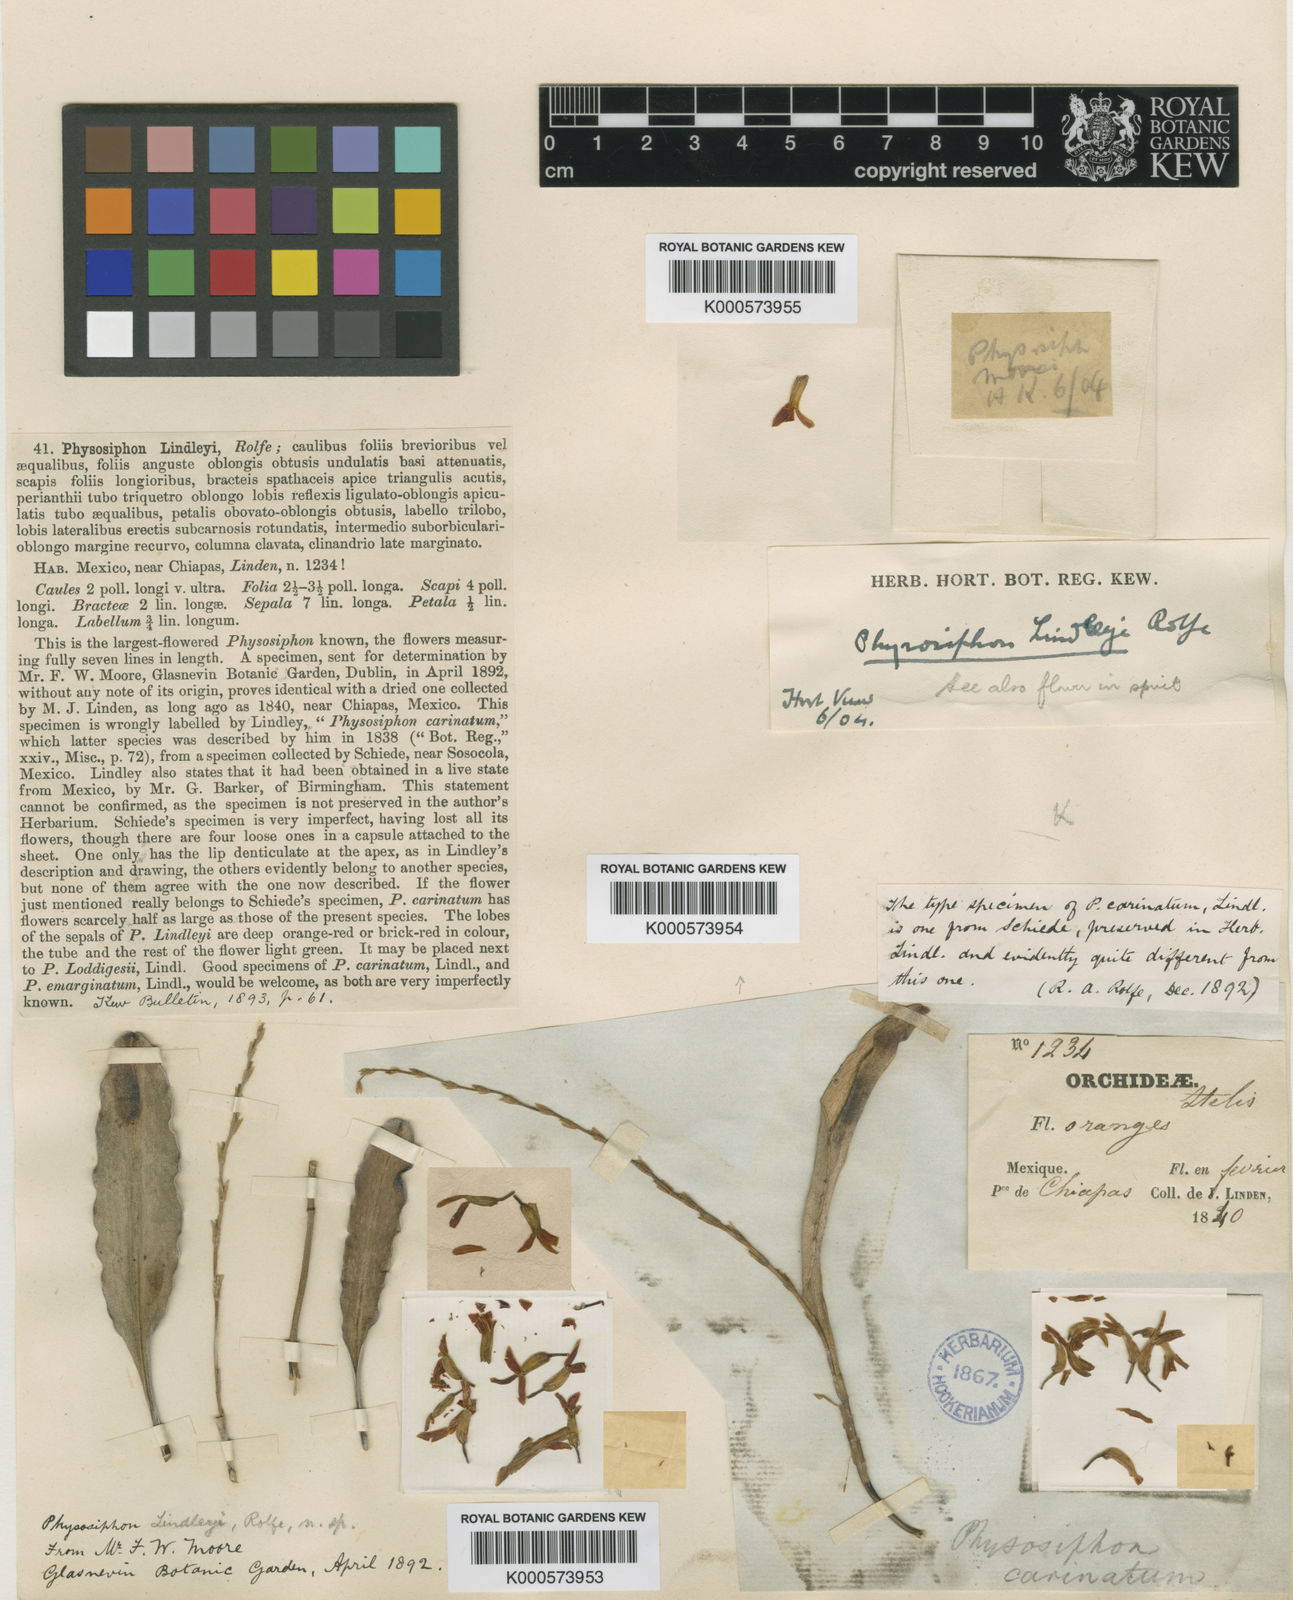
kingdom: Plantae
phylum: Tracheophyta
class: Liliopsida
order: Asparagales
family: Orchidaceae
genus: Stelis
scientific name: Stelis emarginata
